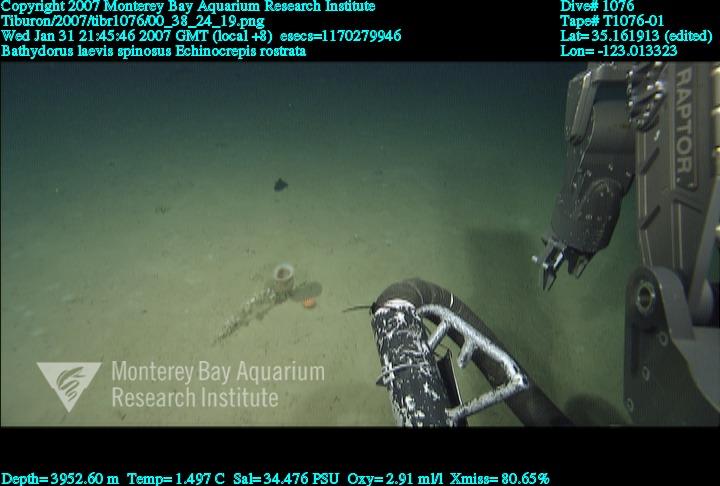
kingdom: Animalia
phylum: Porifera
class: Hexactinellida
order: Lyssacinosida
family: Rossellidae
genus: Bathydorus
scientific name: Bathydorus spinosus
